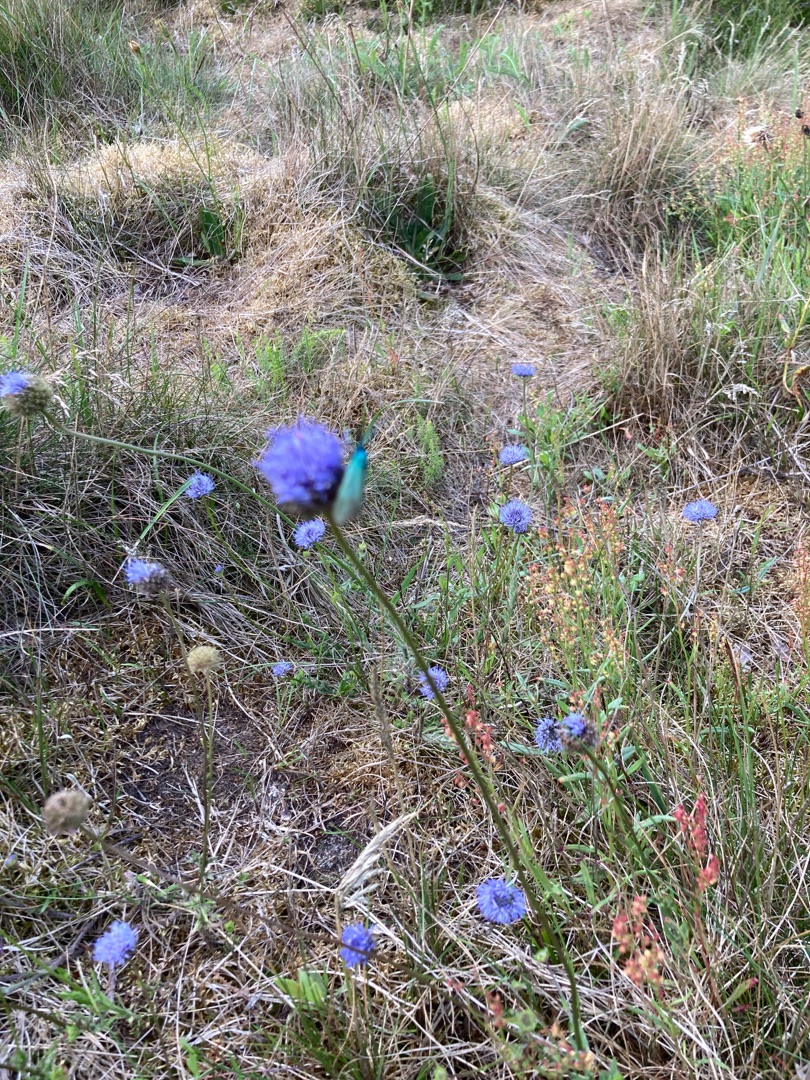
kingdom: Plantae
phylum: Tracheophyta
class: Magnoliopsida
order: Asterales
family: Campanulaceae
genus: Jasione
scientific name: Jasione montana
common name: Blåmunke
